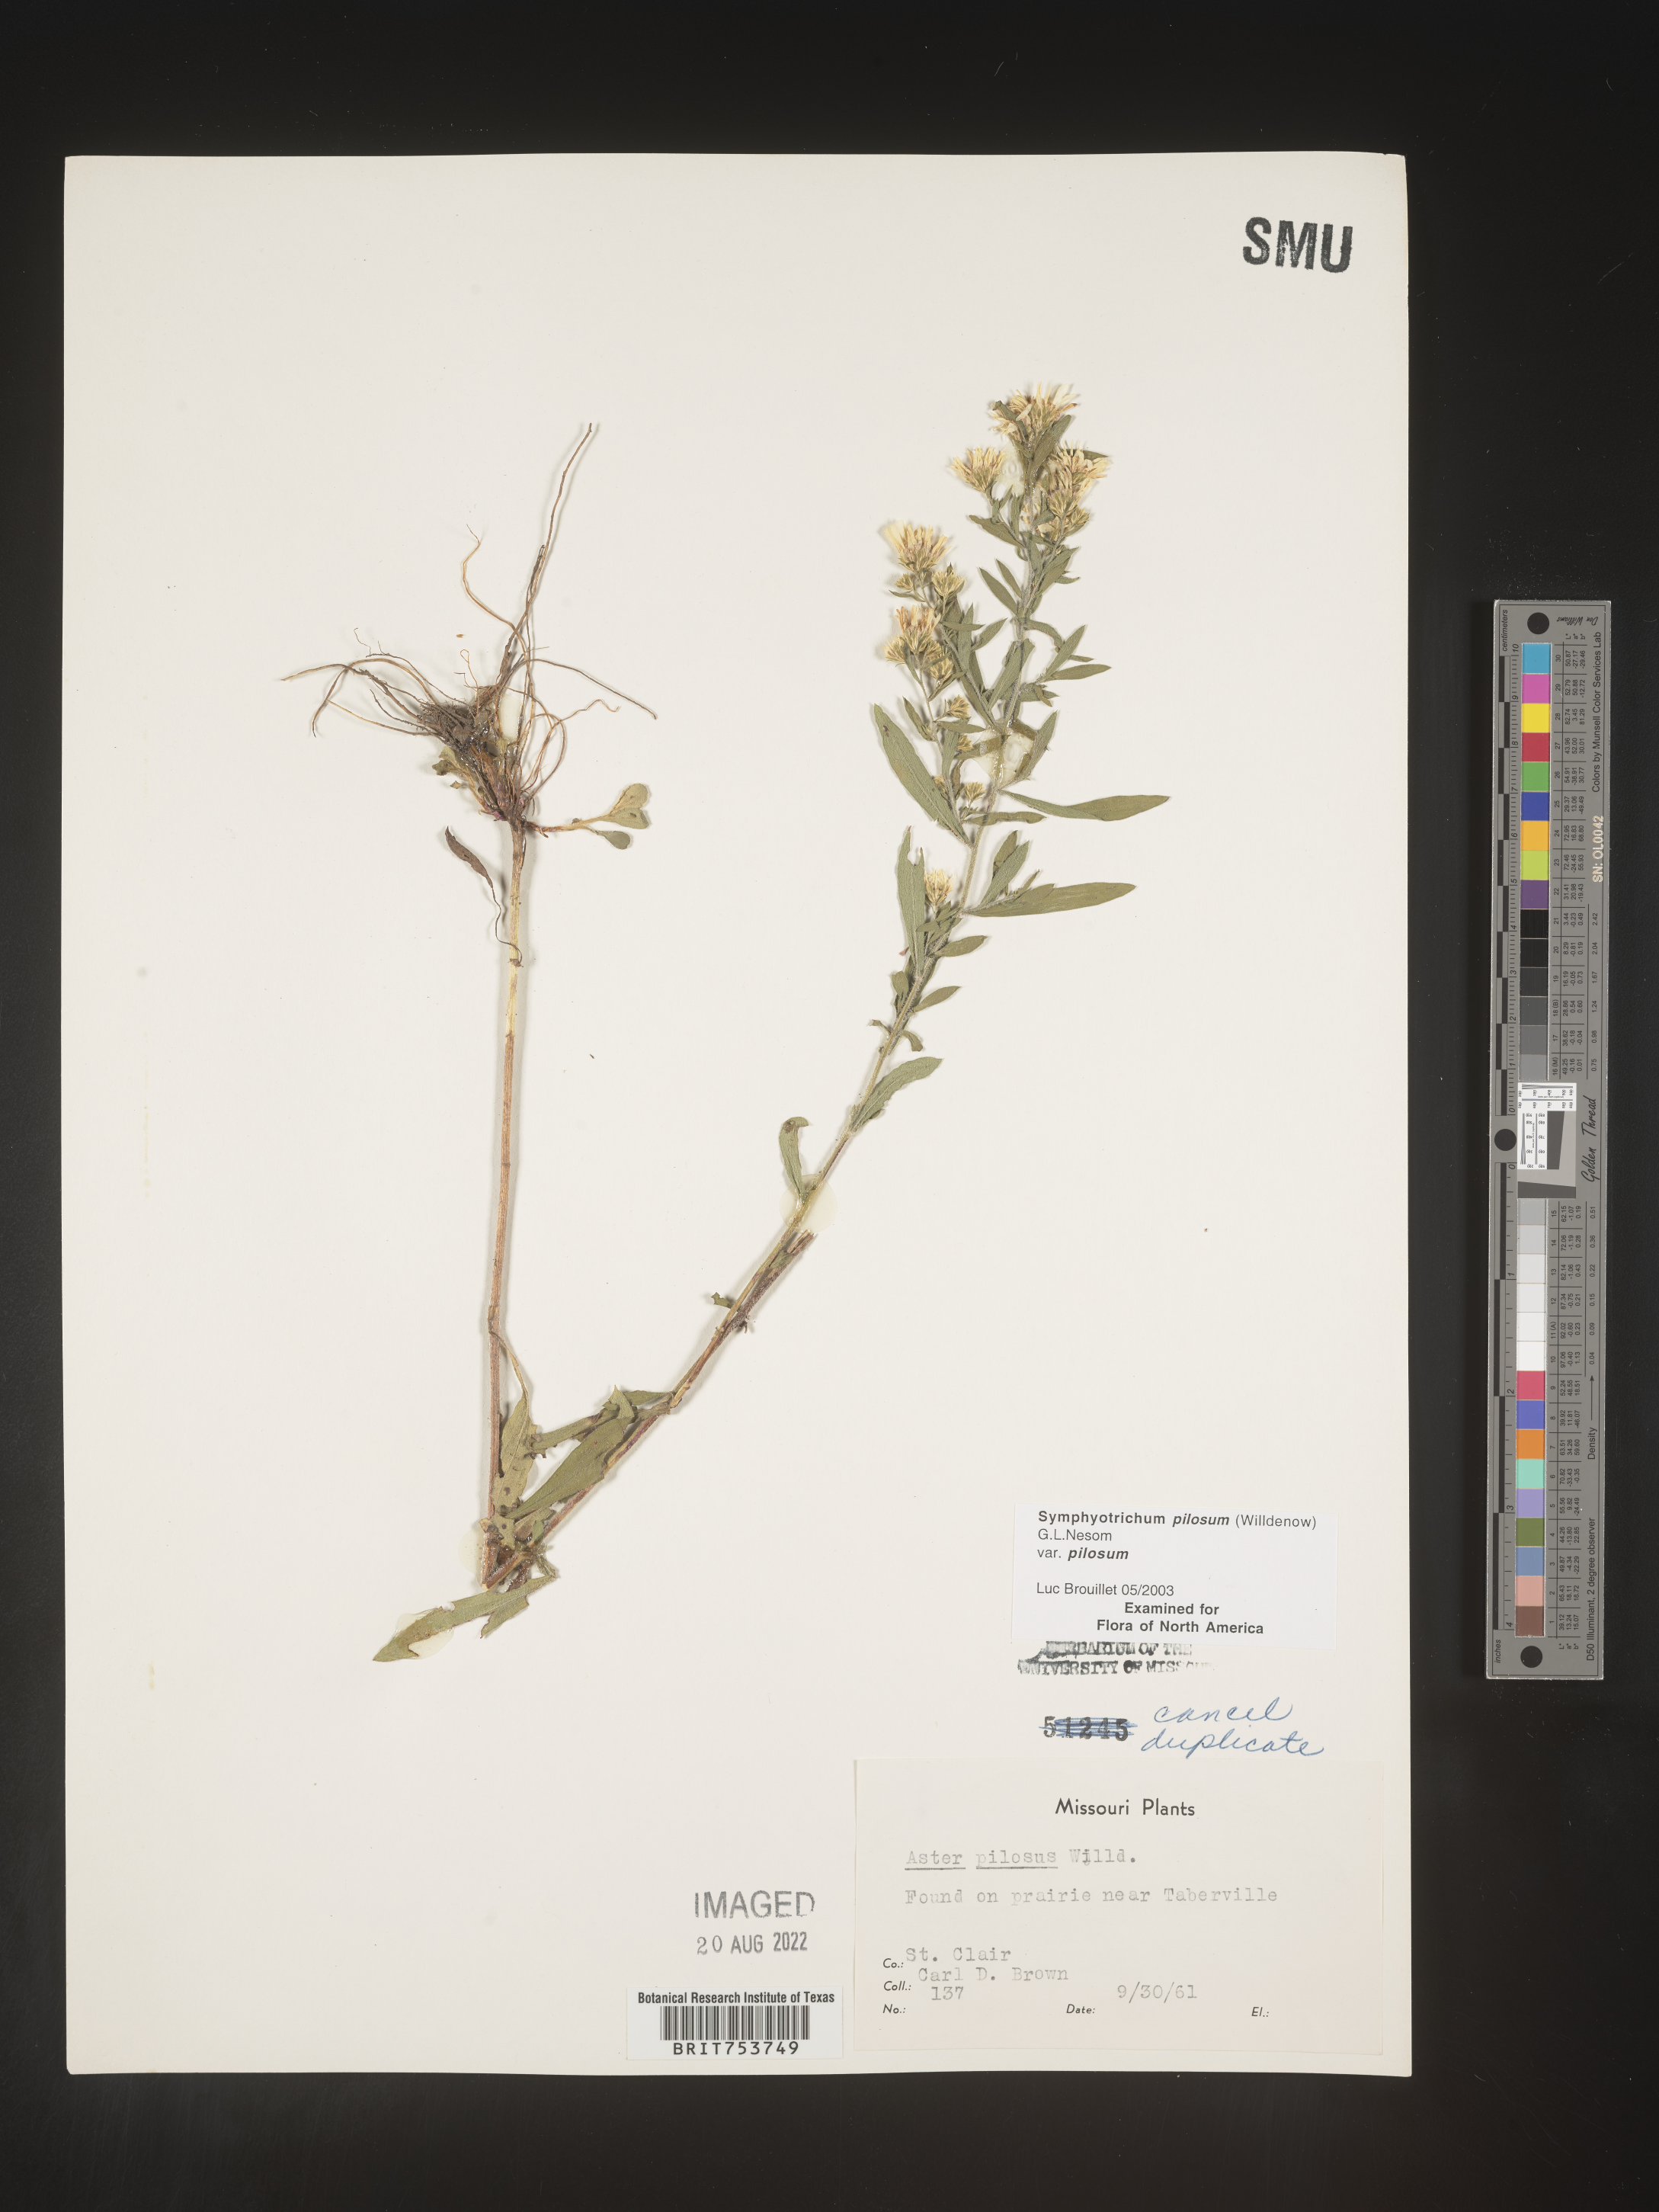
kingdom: Plantae
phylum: Tracheophyta
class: Magnoliopsida
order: Asterales
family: Asteraceae
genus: Symphyotrichum
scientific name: Symphyotrichum pilosum
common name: Awl aster
